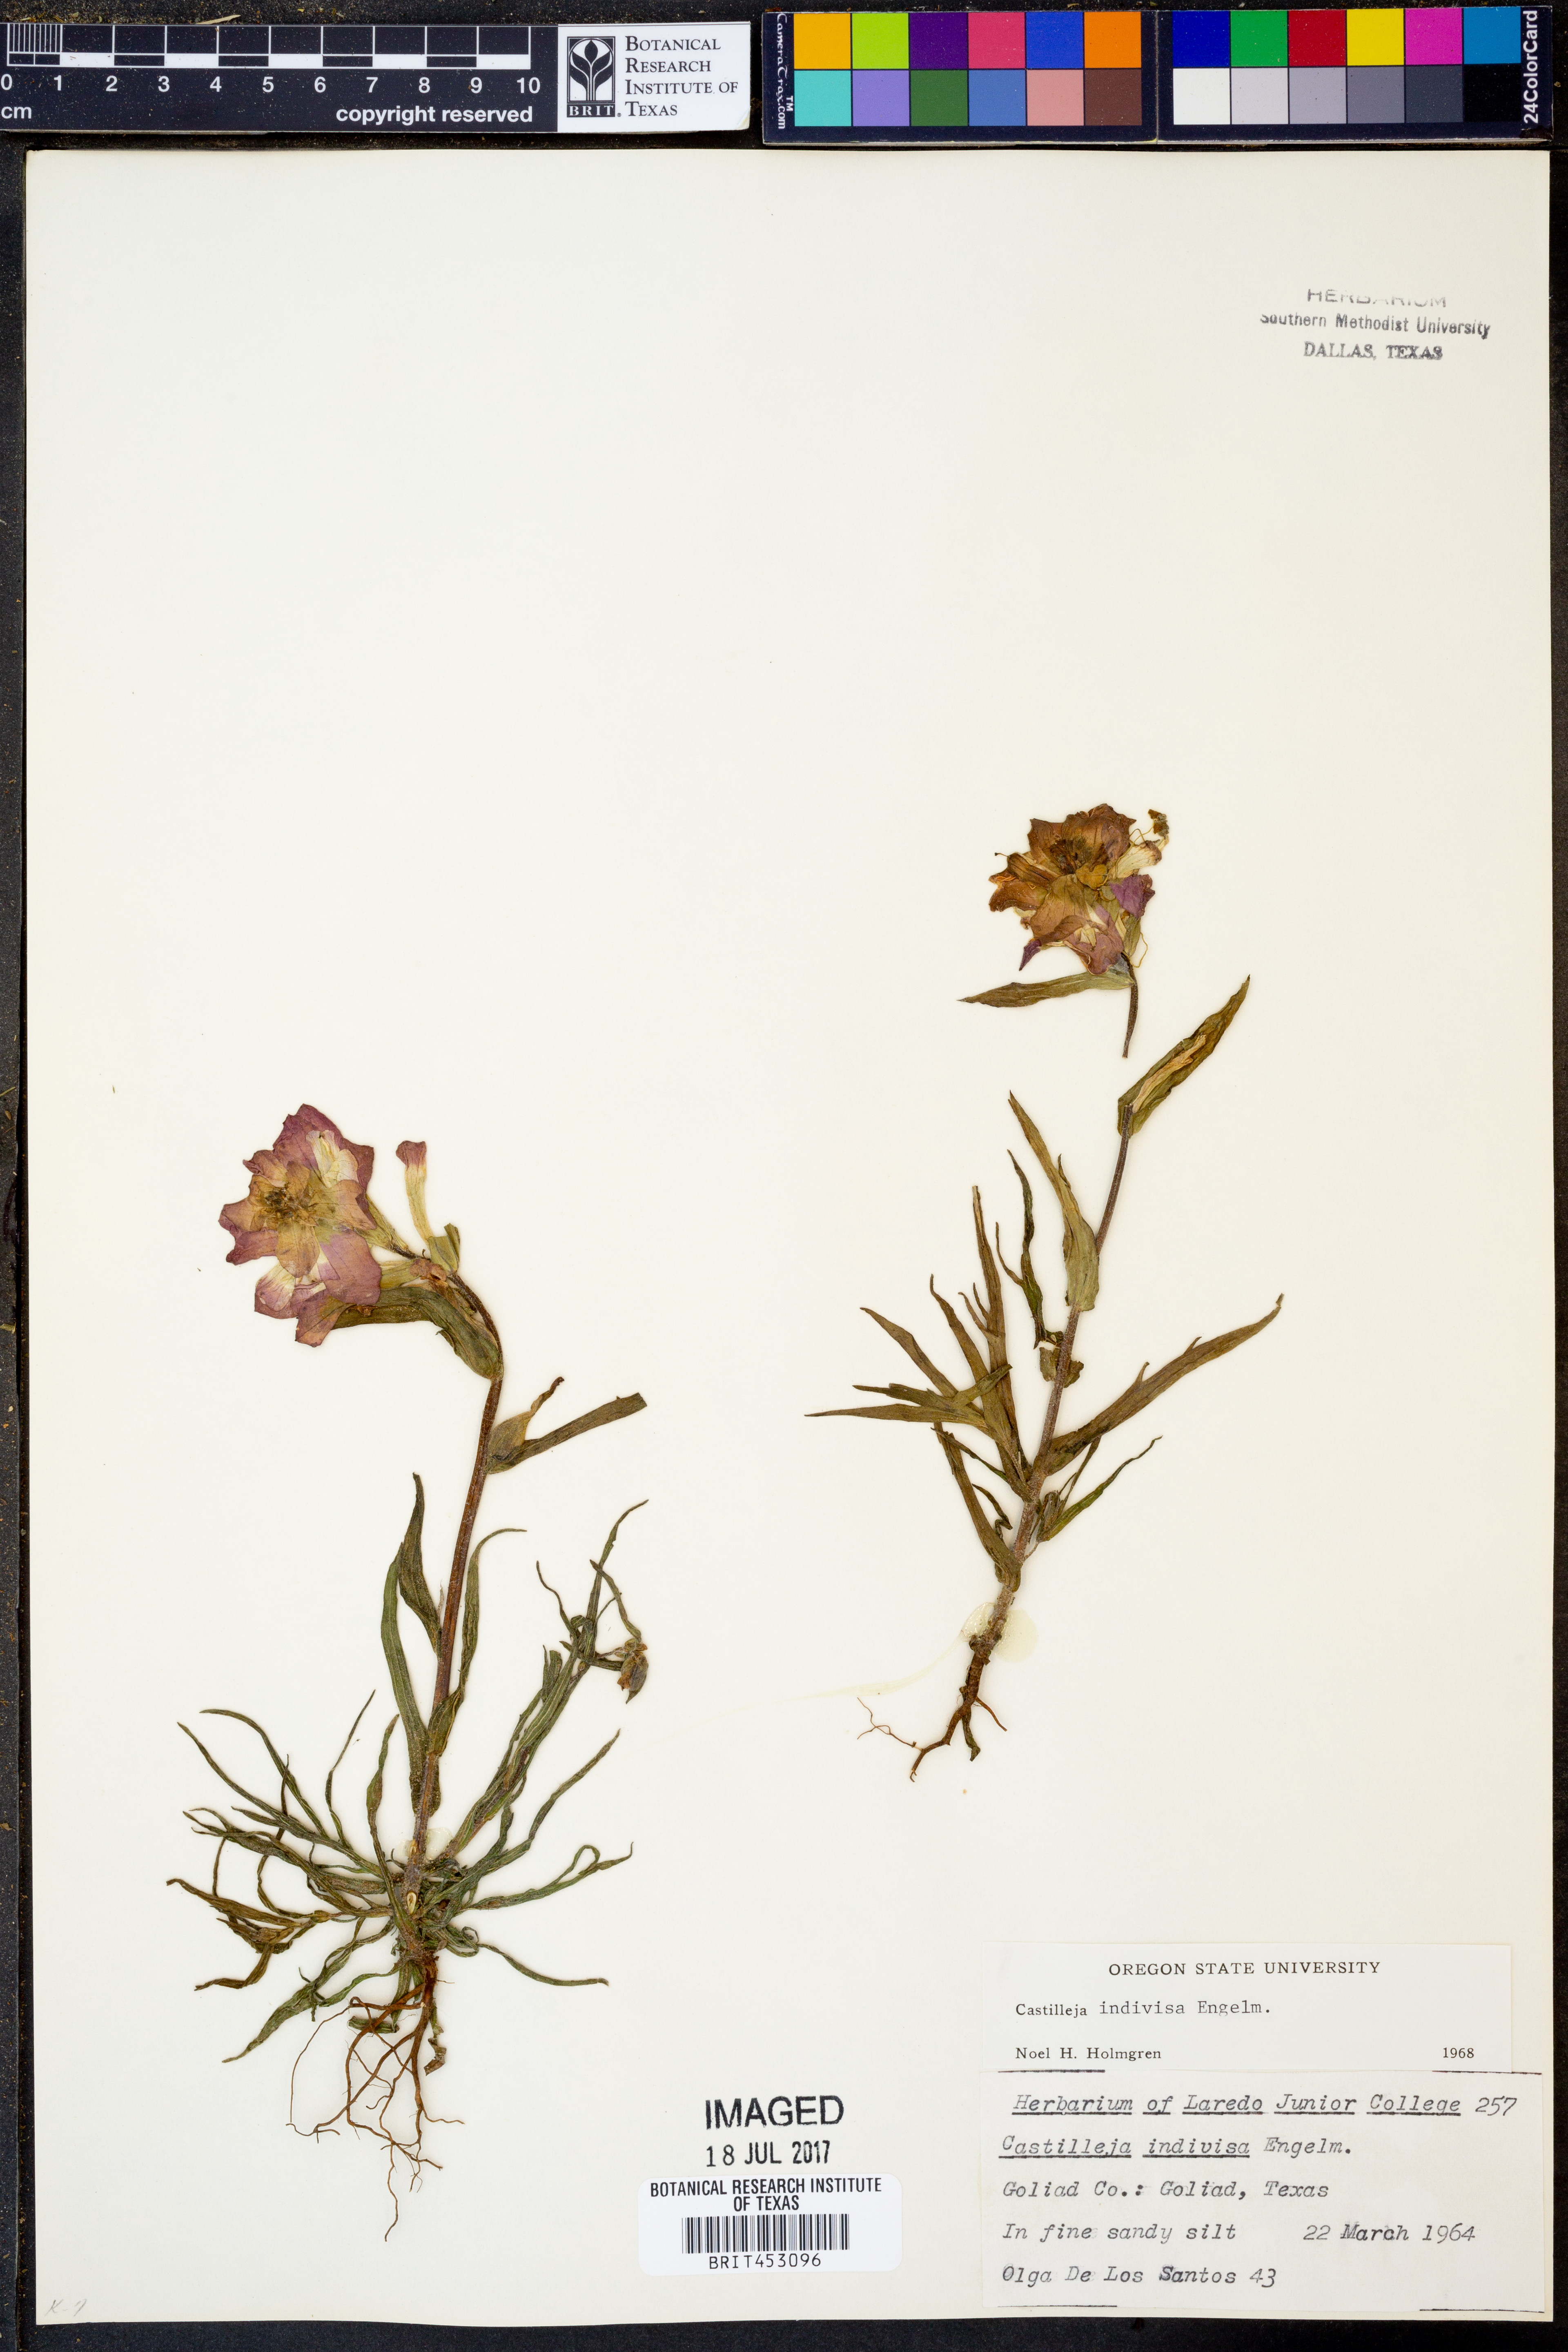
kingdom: Plantae
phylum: Tracheophyta
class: Magnoliopsida
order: Lamiales
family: Orobanchaceae
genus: Castilleja
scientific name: Castilleja indivisa
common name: Texas paintbrush
